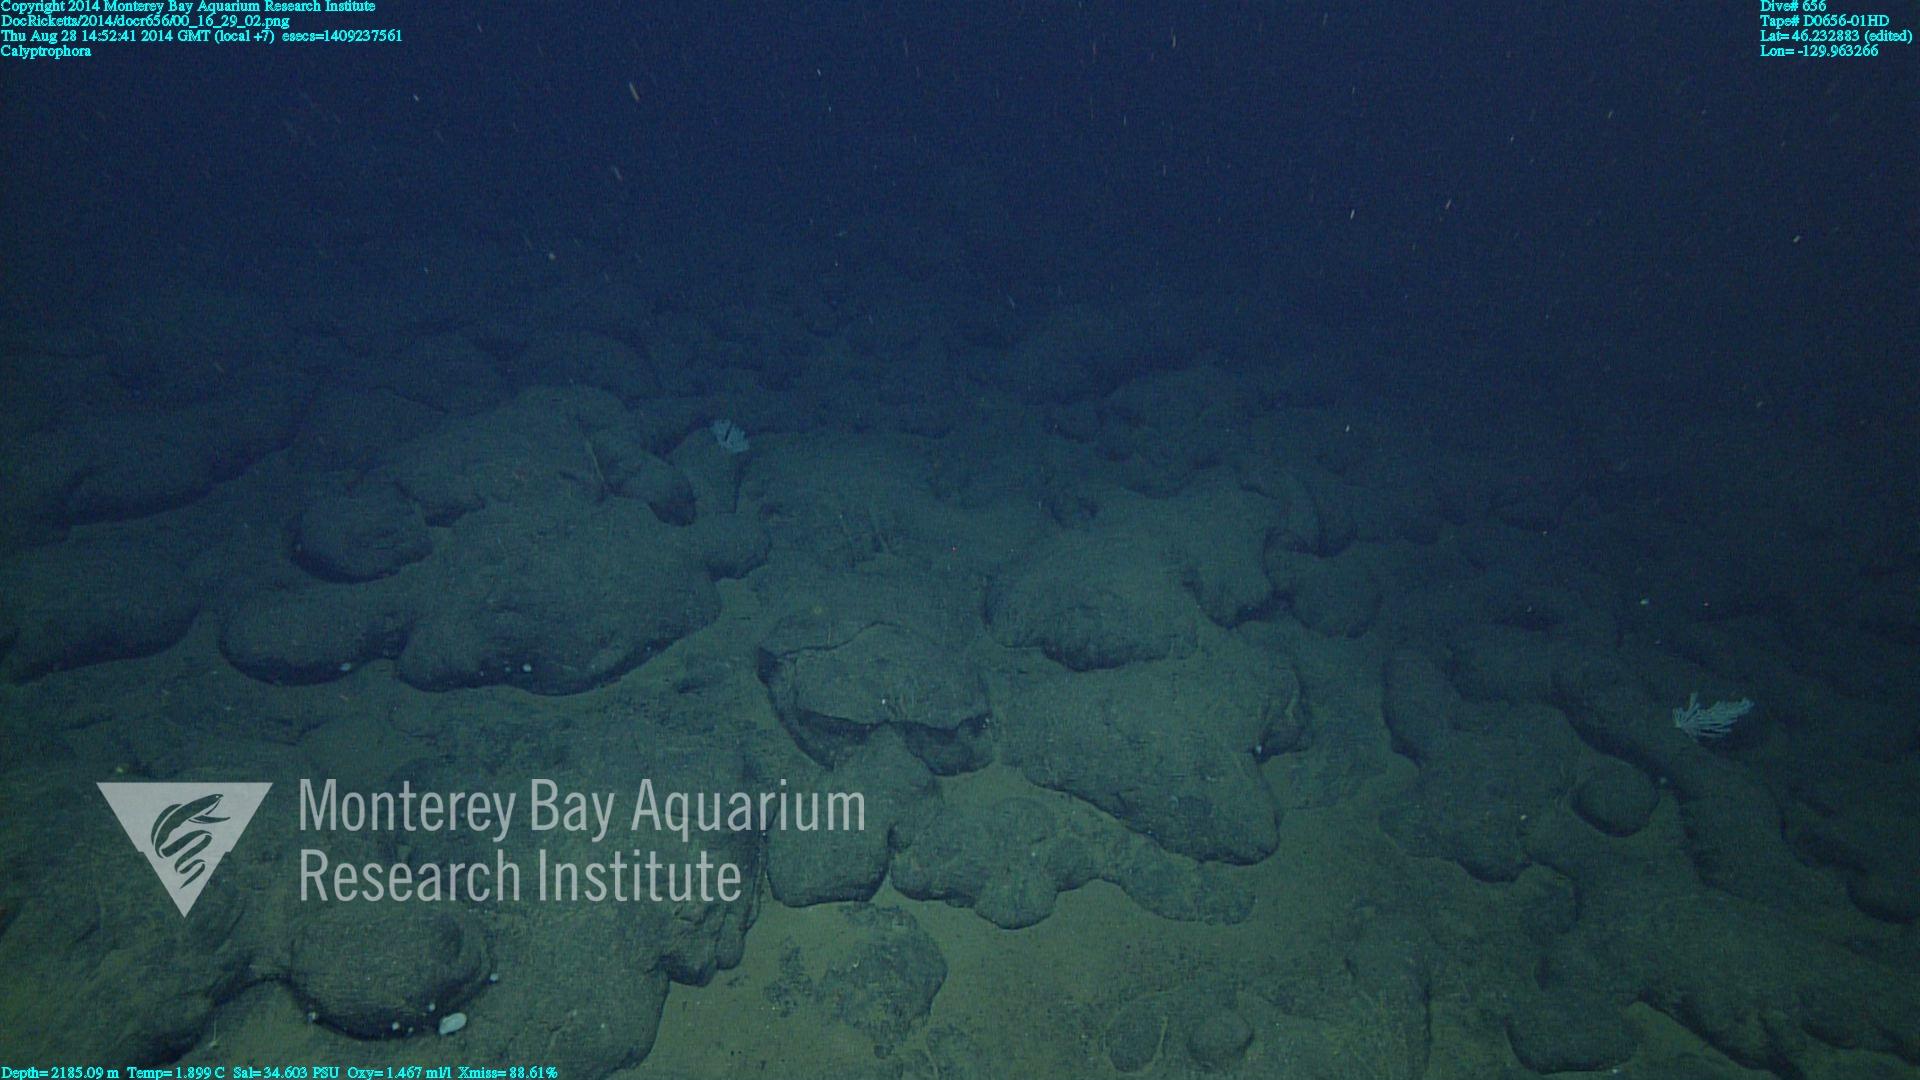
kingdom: Animalia
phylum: Cnidaria
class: Anthozoa
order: Scleralcyonacea
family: Primnoidae
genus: Calyptrophora
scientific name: Calyptrophora
